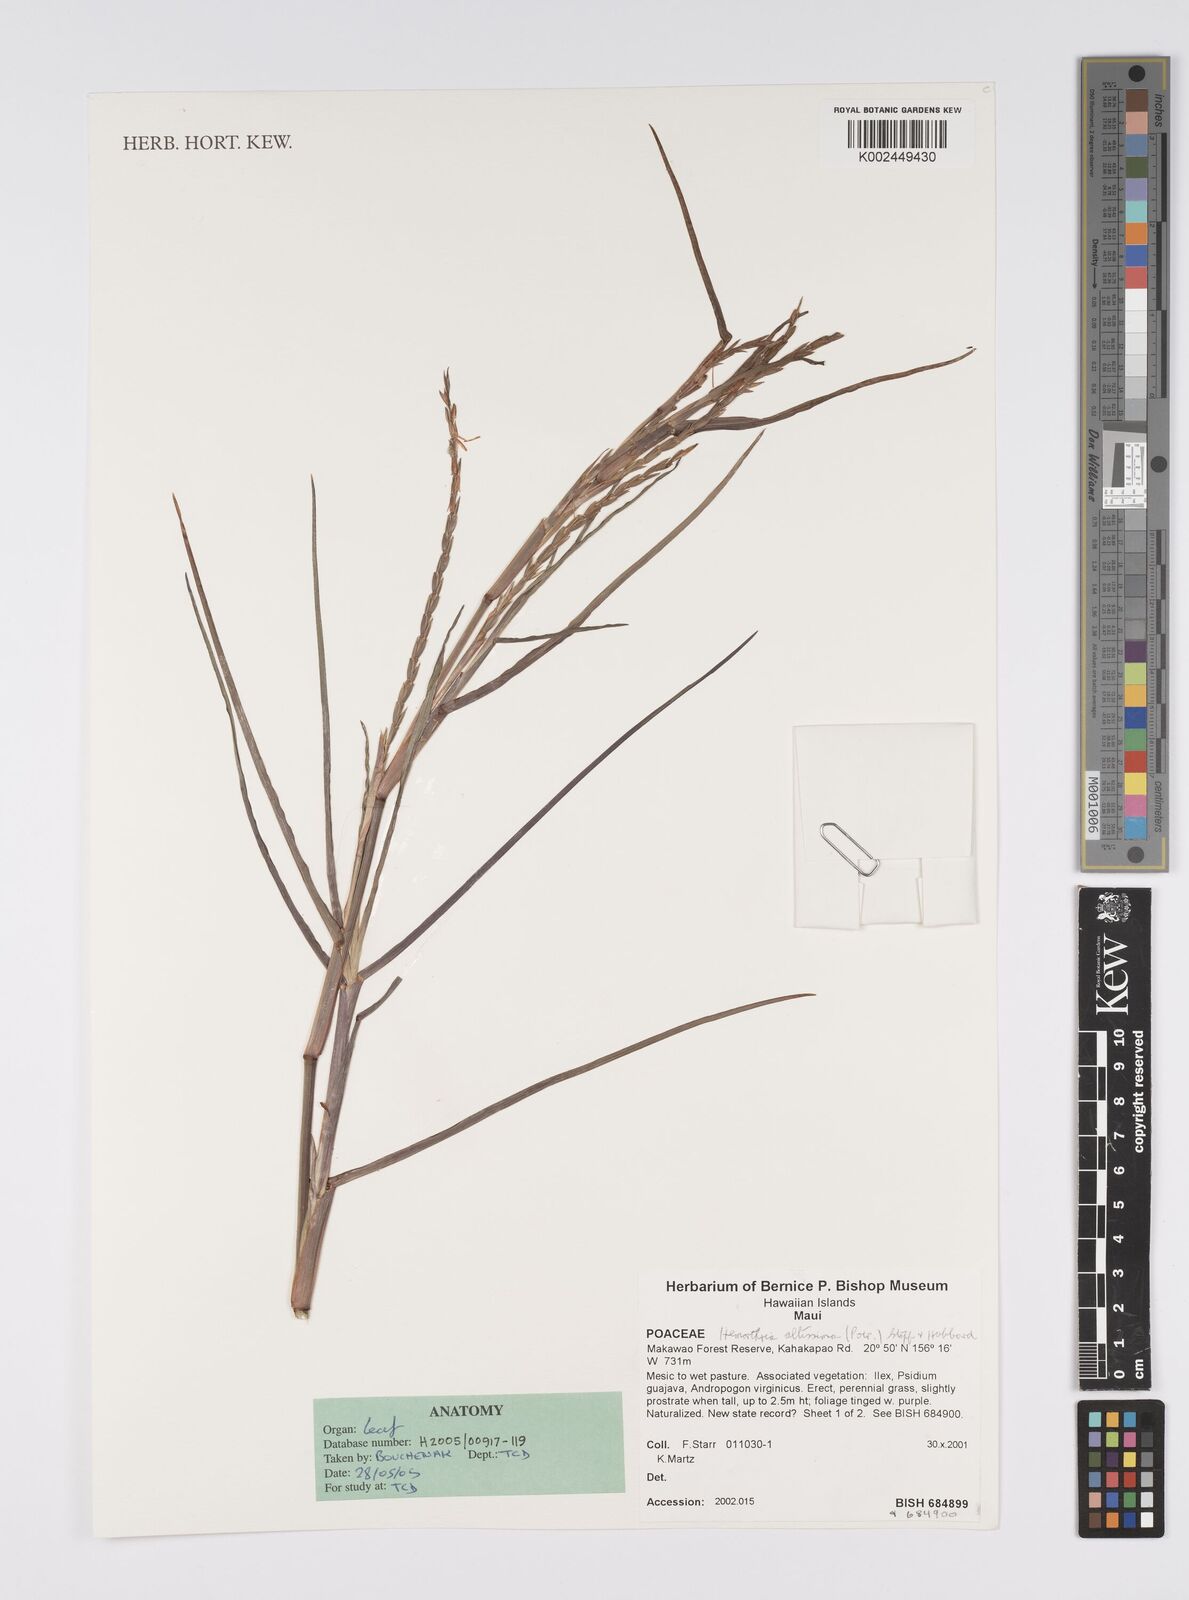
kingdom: Plantae
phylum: Tracheophyta
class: Liliopsida
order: Poales
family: Poaceae
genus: Hemarthria
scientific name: Hemarthria altissima
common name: African jointgrass
